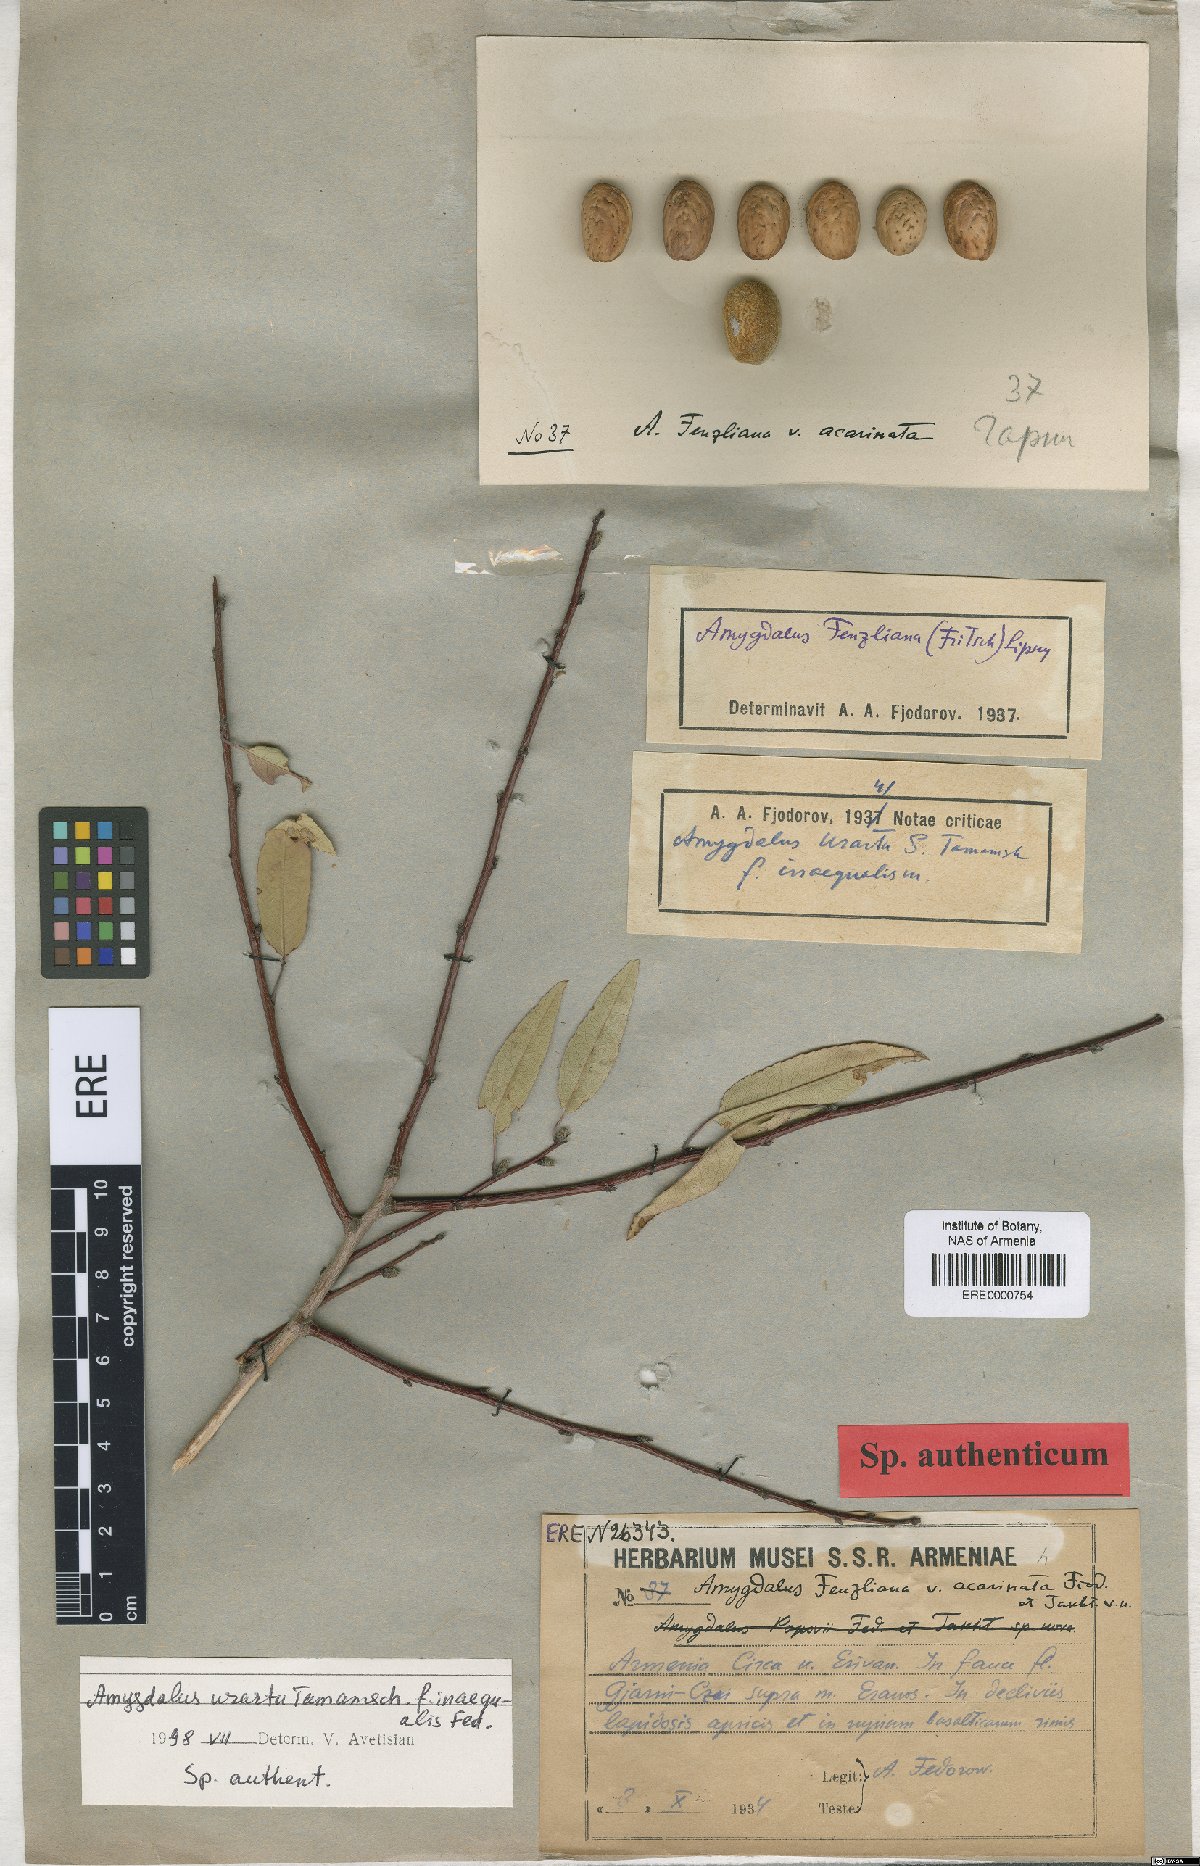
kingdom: Plantae
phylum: Tracheophyta
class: Magnoliopsida
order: Rosales
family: Rosaceae
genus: Prunus
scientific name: Prunus urartu
